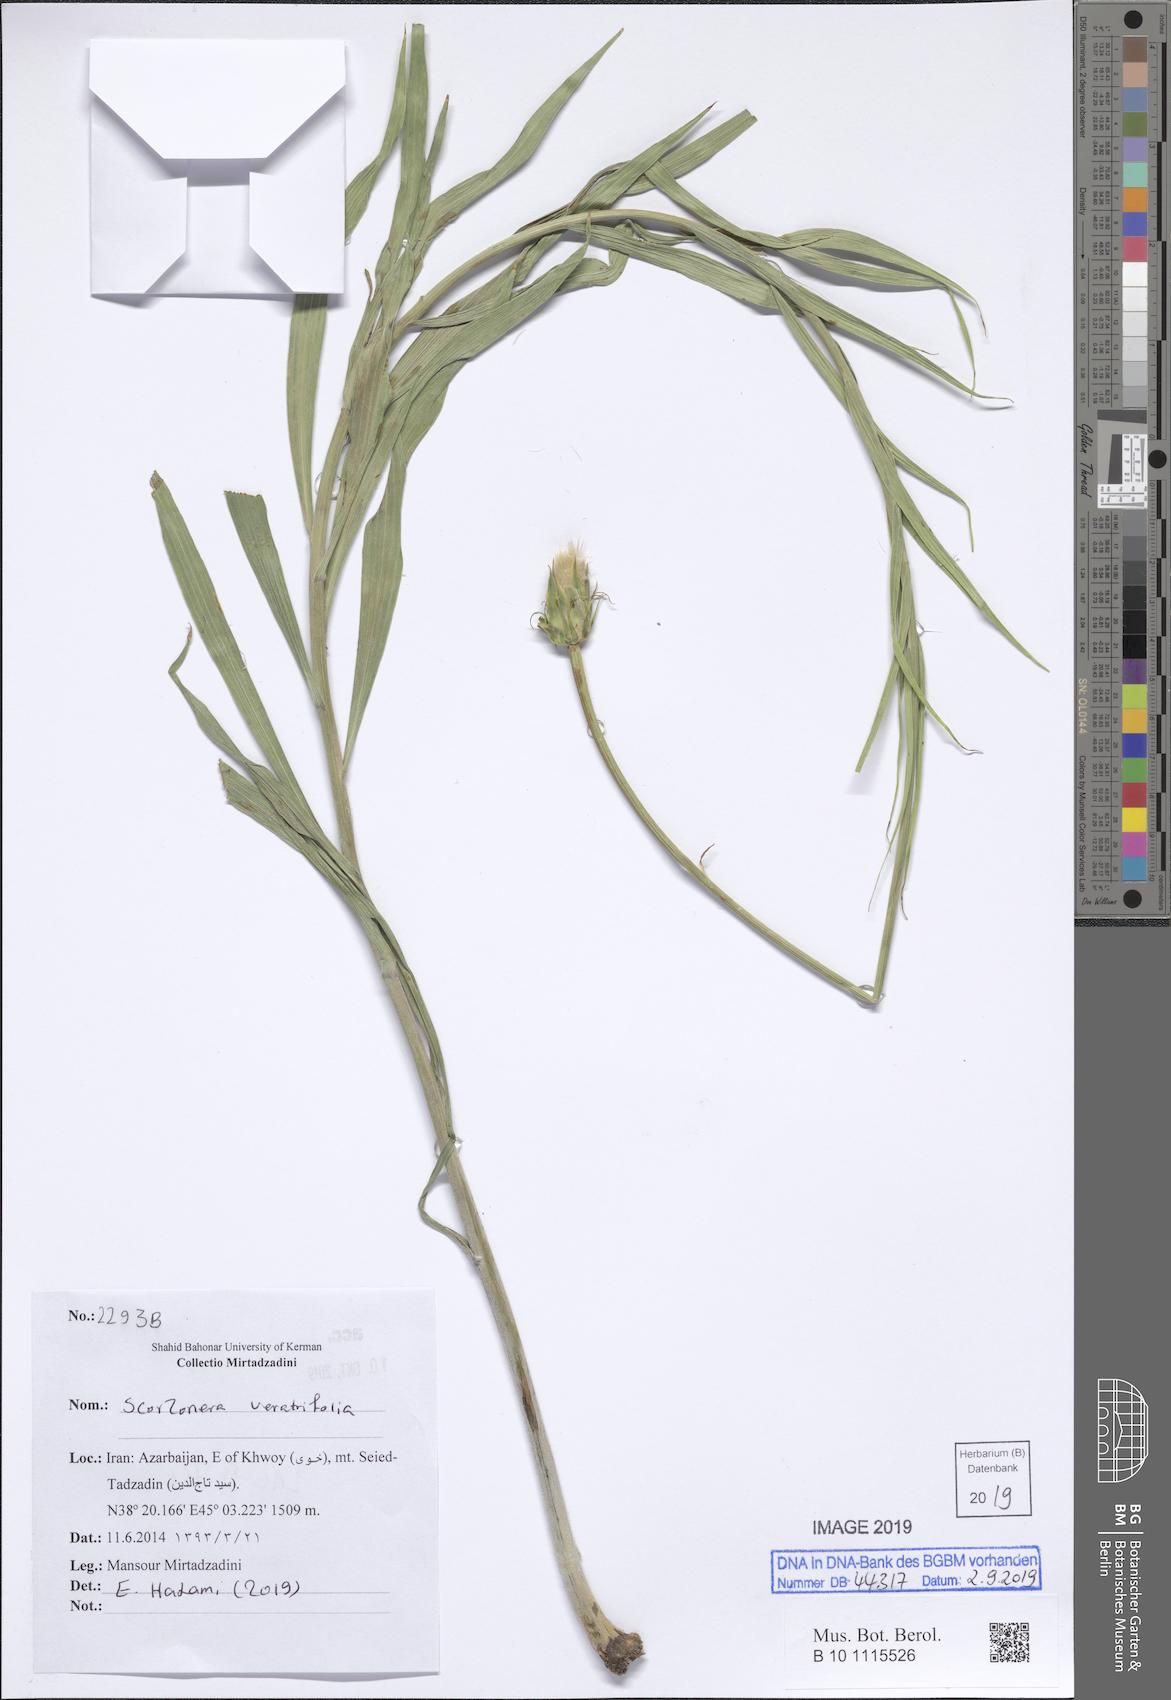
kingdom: Plantae
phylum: Tracheophyta
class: Magnoliopsida
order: Asterales
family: Asteraceae
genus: Guneria
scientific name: Guneria veratrifolia
